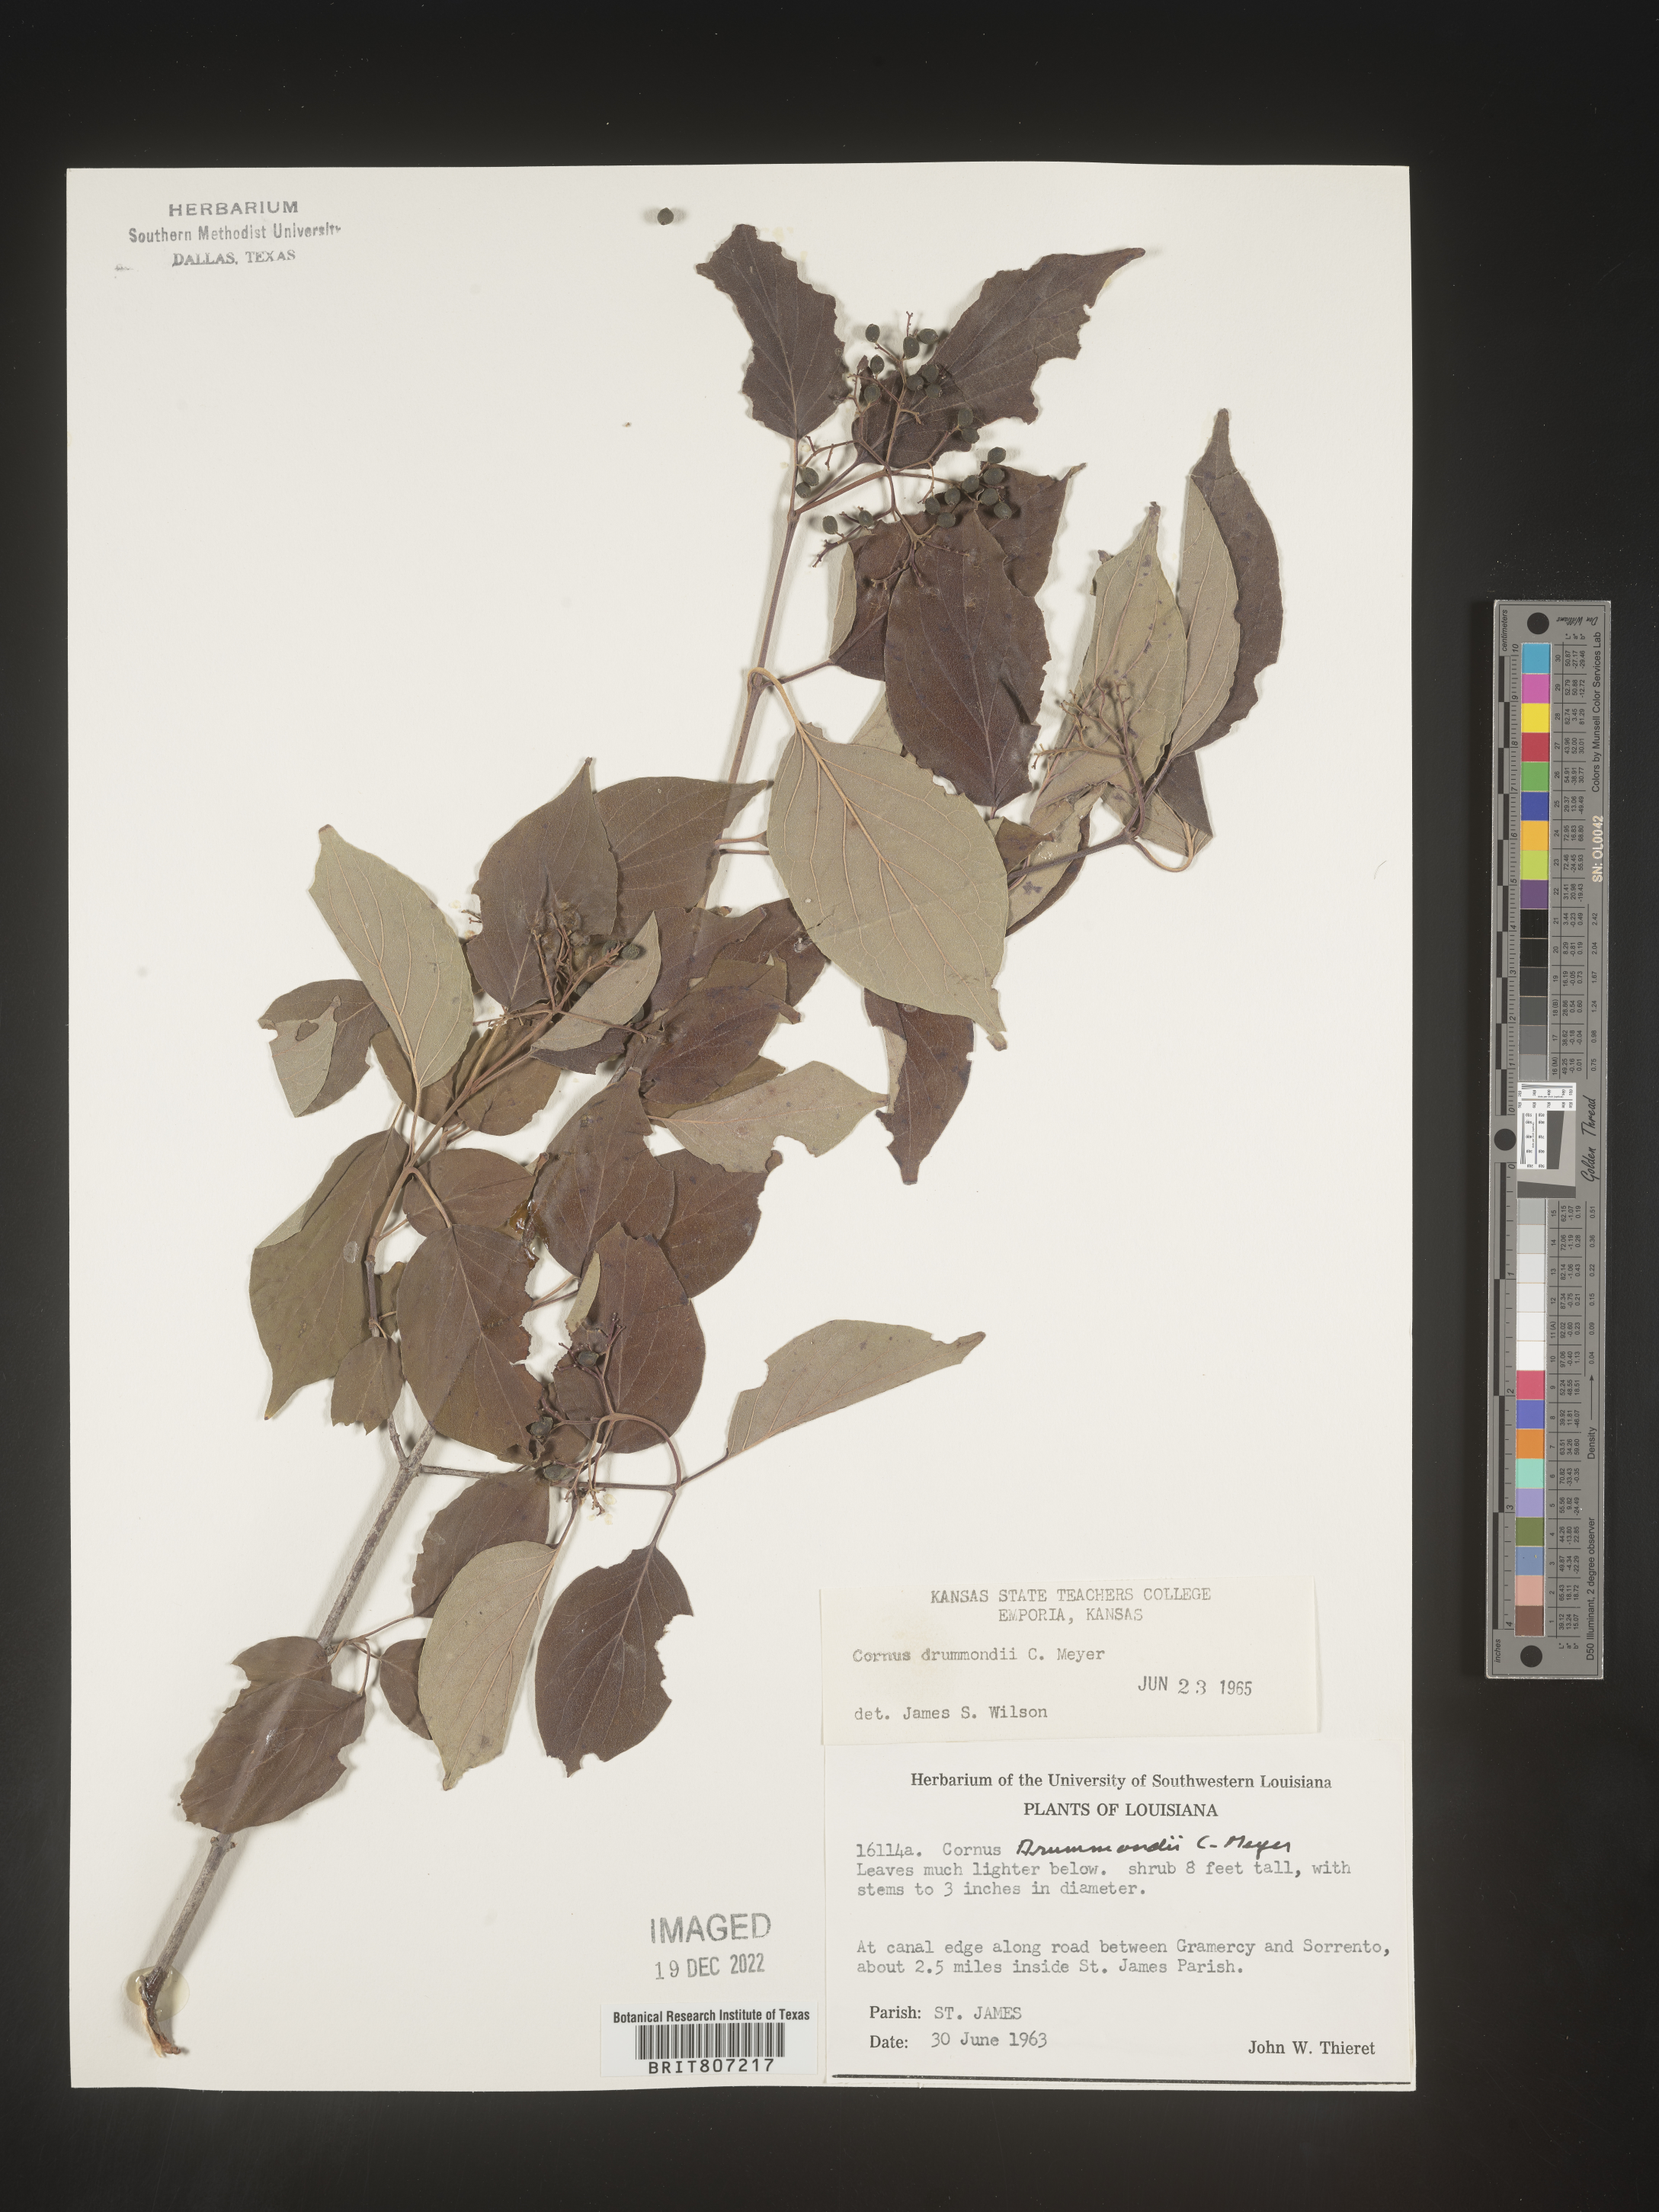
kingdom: Plantae
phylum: Tracheophyta
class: Magnoliopsida
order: Cornales
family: Cornaceae
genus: Cornus
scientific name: Cornus drummondii
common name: Rough-leaf dogwood
